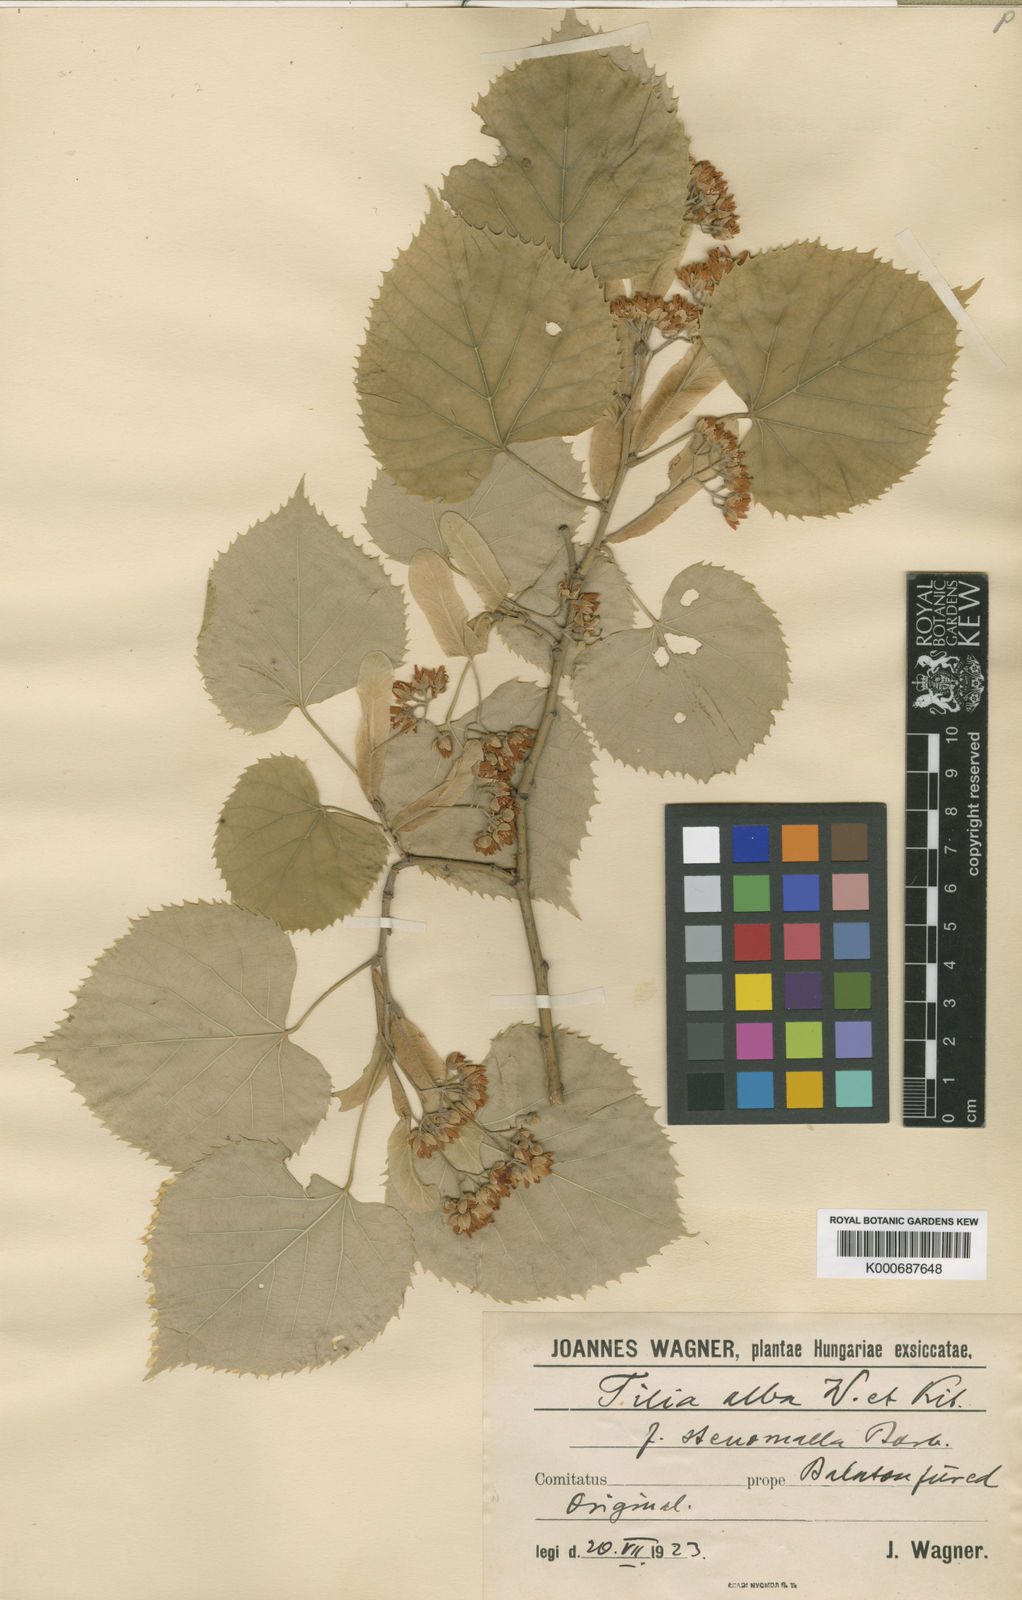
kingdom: Plantae
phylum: Tracheophyta
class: Magnoliopsida
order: Malvales
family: Malvaceae
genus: Tilia
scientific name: Tilia tomentosa
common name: Silver lime
